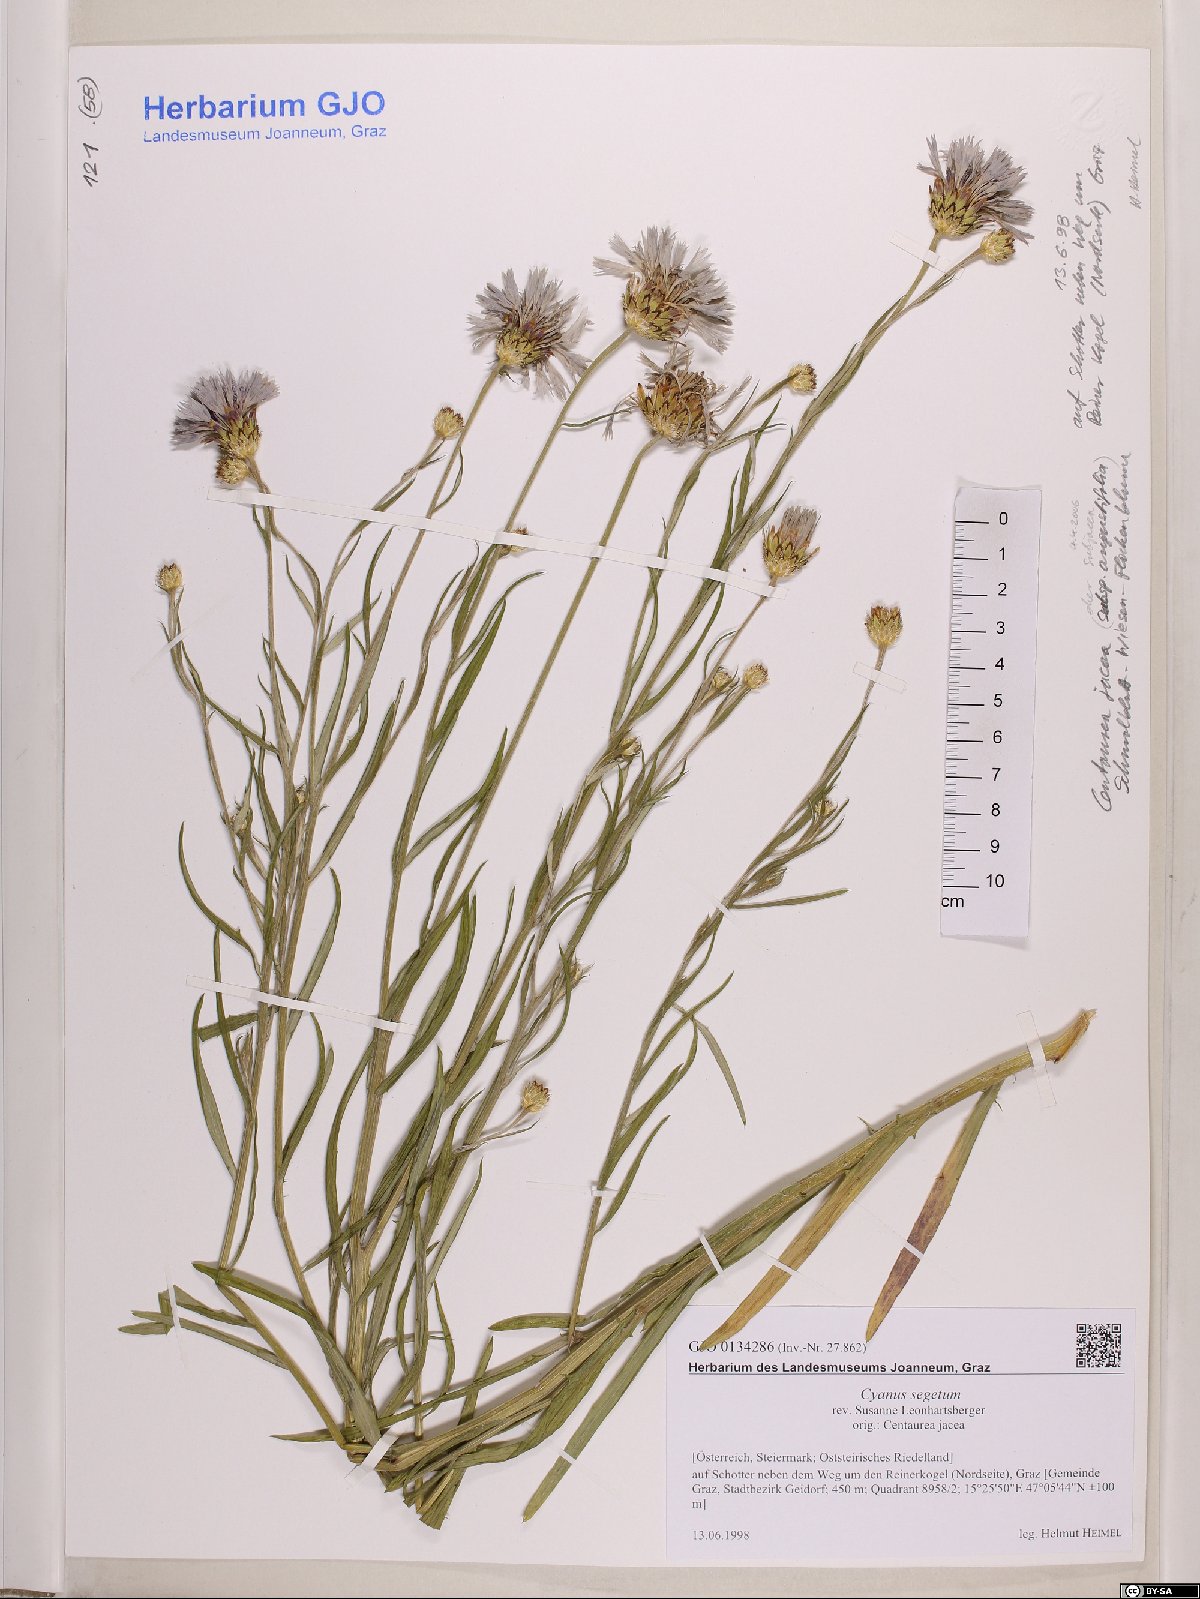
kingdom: Plantae
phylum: Tracheophyta
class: Magnoliopsida
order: Asterales
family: Asteraceae
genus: Centaurea
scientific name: Centaurea cyanus
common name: Cornflower
